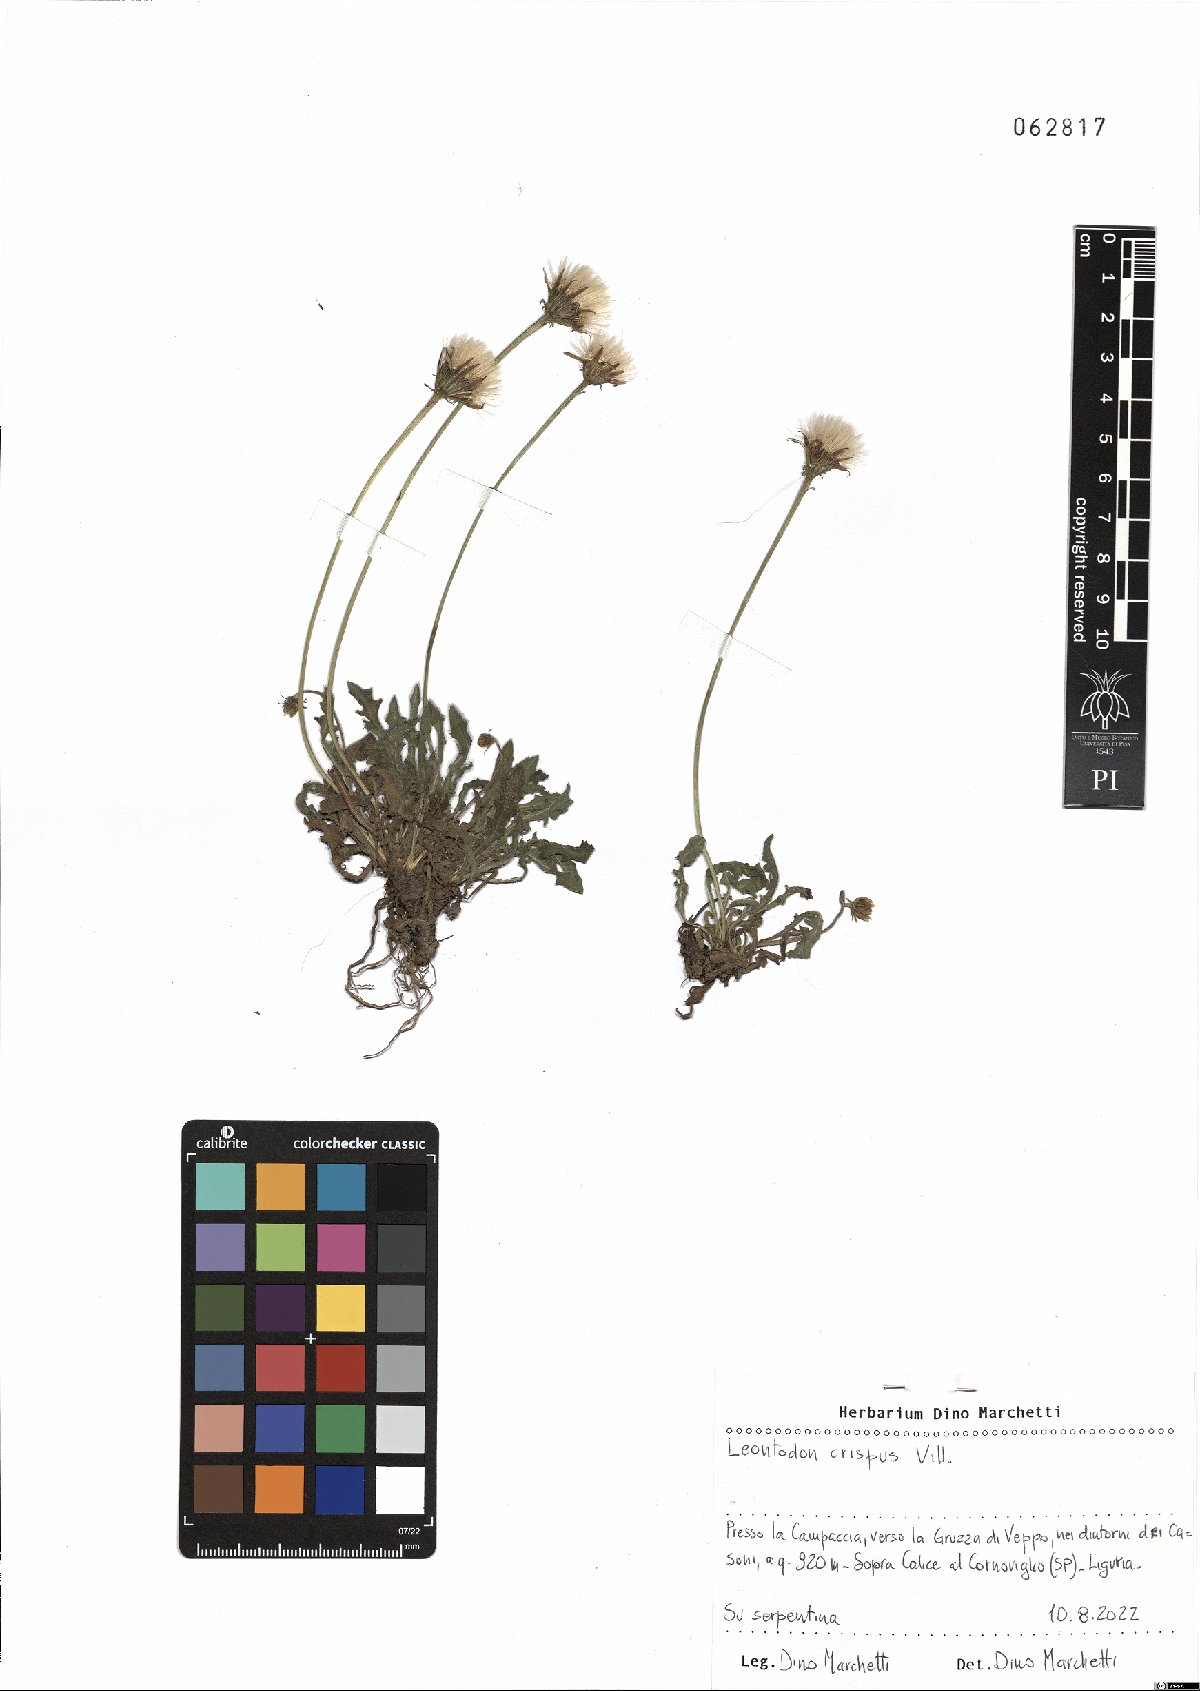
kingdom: Plantae
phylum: Tracheophyta
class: Magnoliopsida
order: Asterales
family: Asteraceae
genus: Leontodon
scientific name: Leontodon crispus
